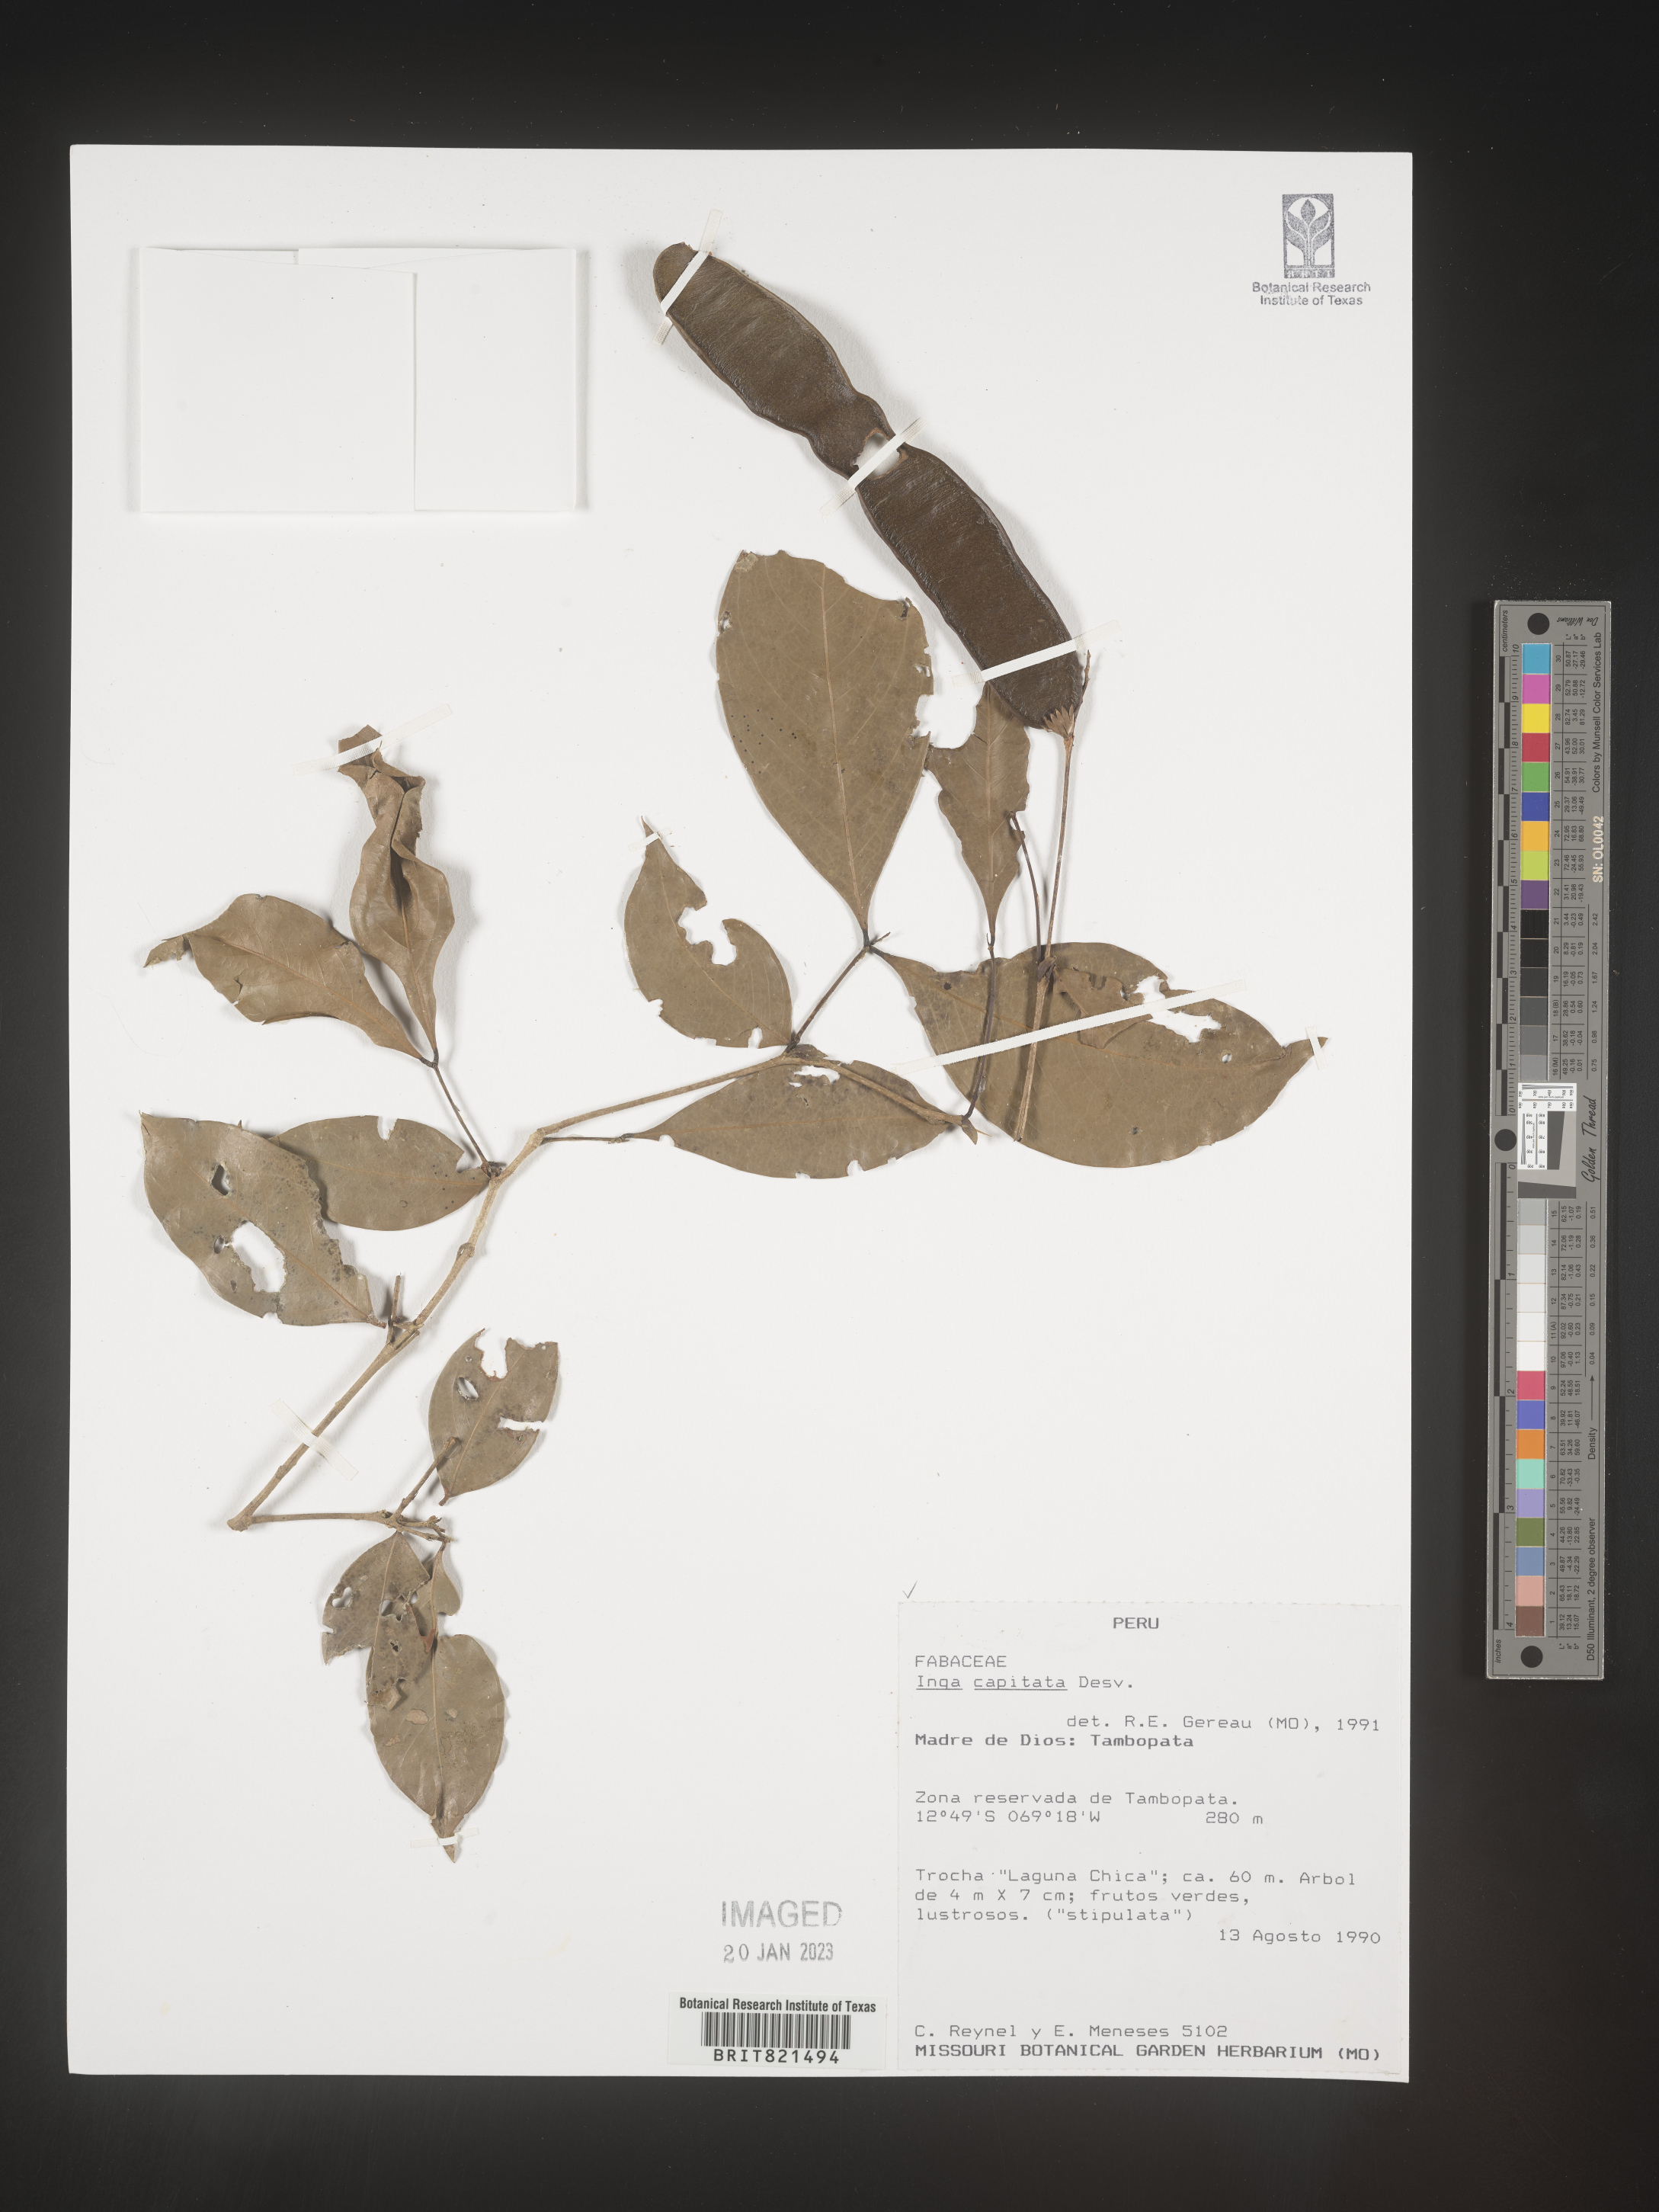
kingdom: Plantae
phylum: Tracheophyta
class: Magnoliopsida
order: Fabales
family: Fabaceae
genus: Inga
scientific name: Inga
